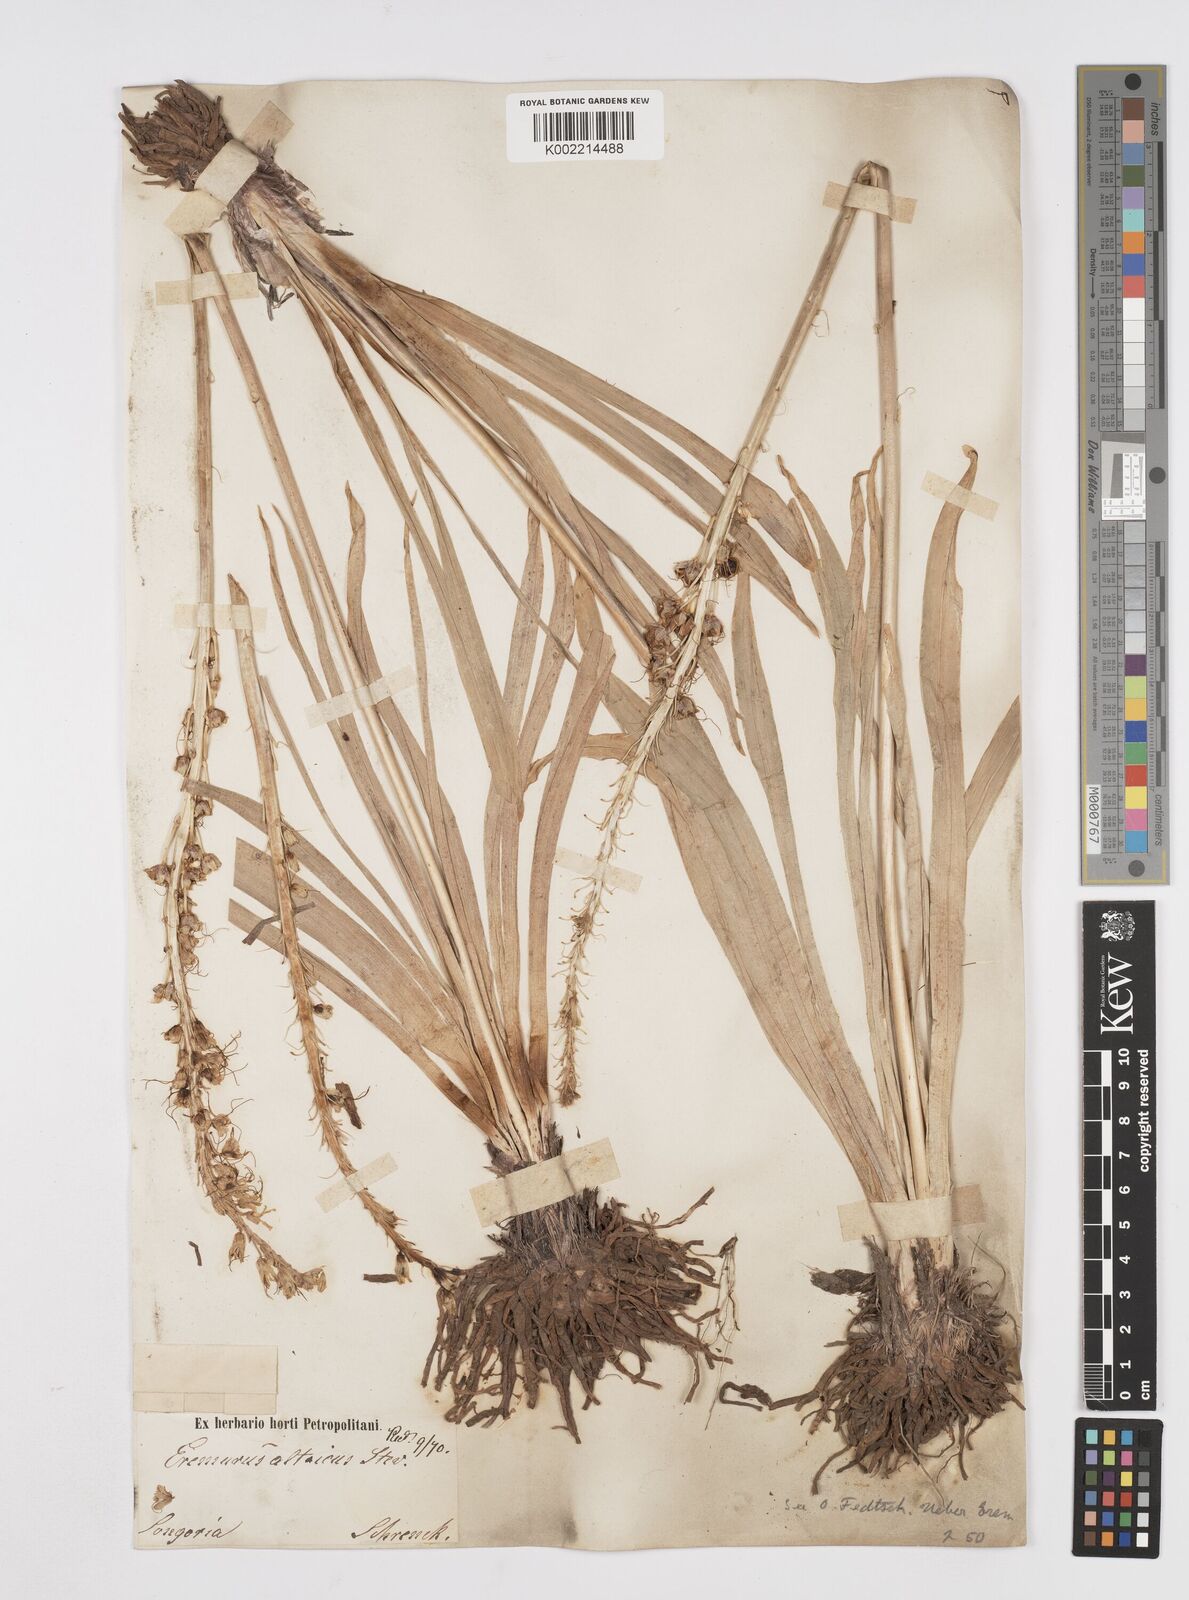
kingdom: Plantae
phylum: Tracheophyta
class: Liliopsida
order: Asparagales
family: Asphodelaceae
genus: Eremurus
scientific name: Eremurus altaicus
